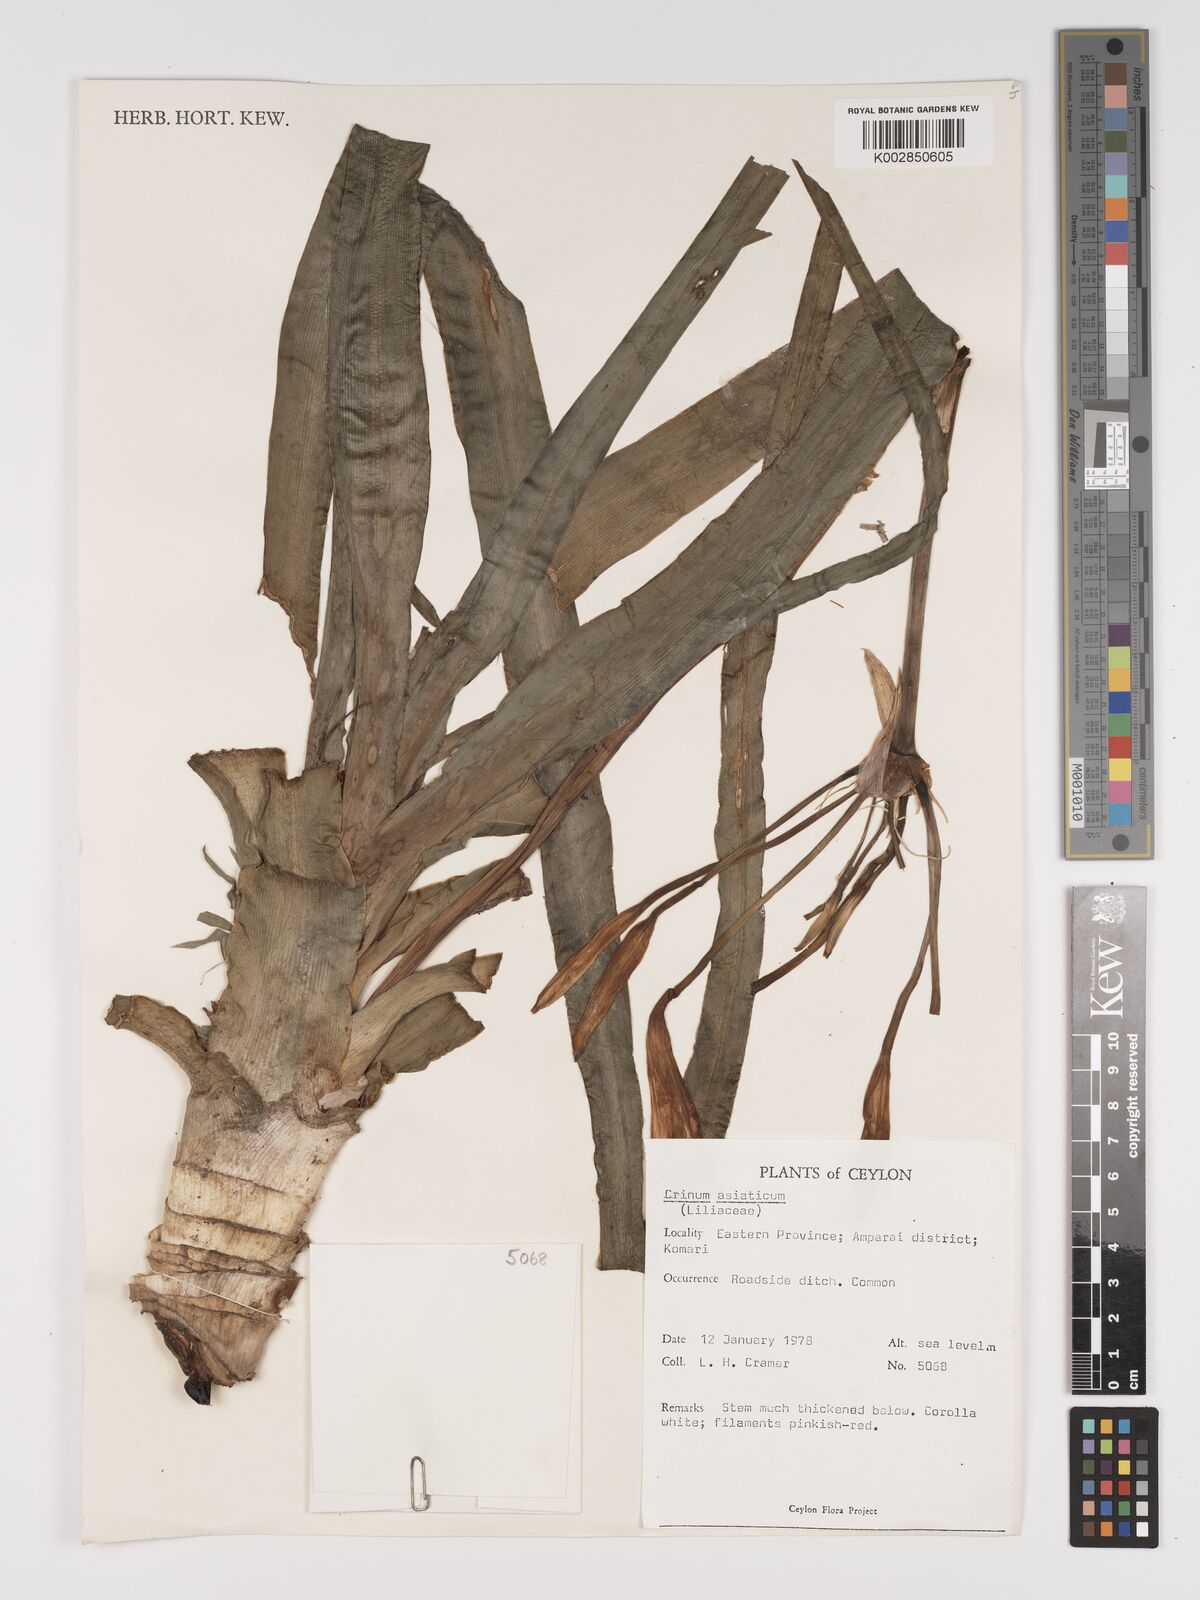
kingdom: Plantae
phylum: Tracheophyta
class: Liliopsida
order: Asparagales
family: Amaryllidaceae
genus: Crinum
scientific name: Crinum asiaticum
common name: Poisonbulb
